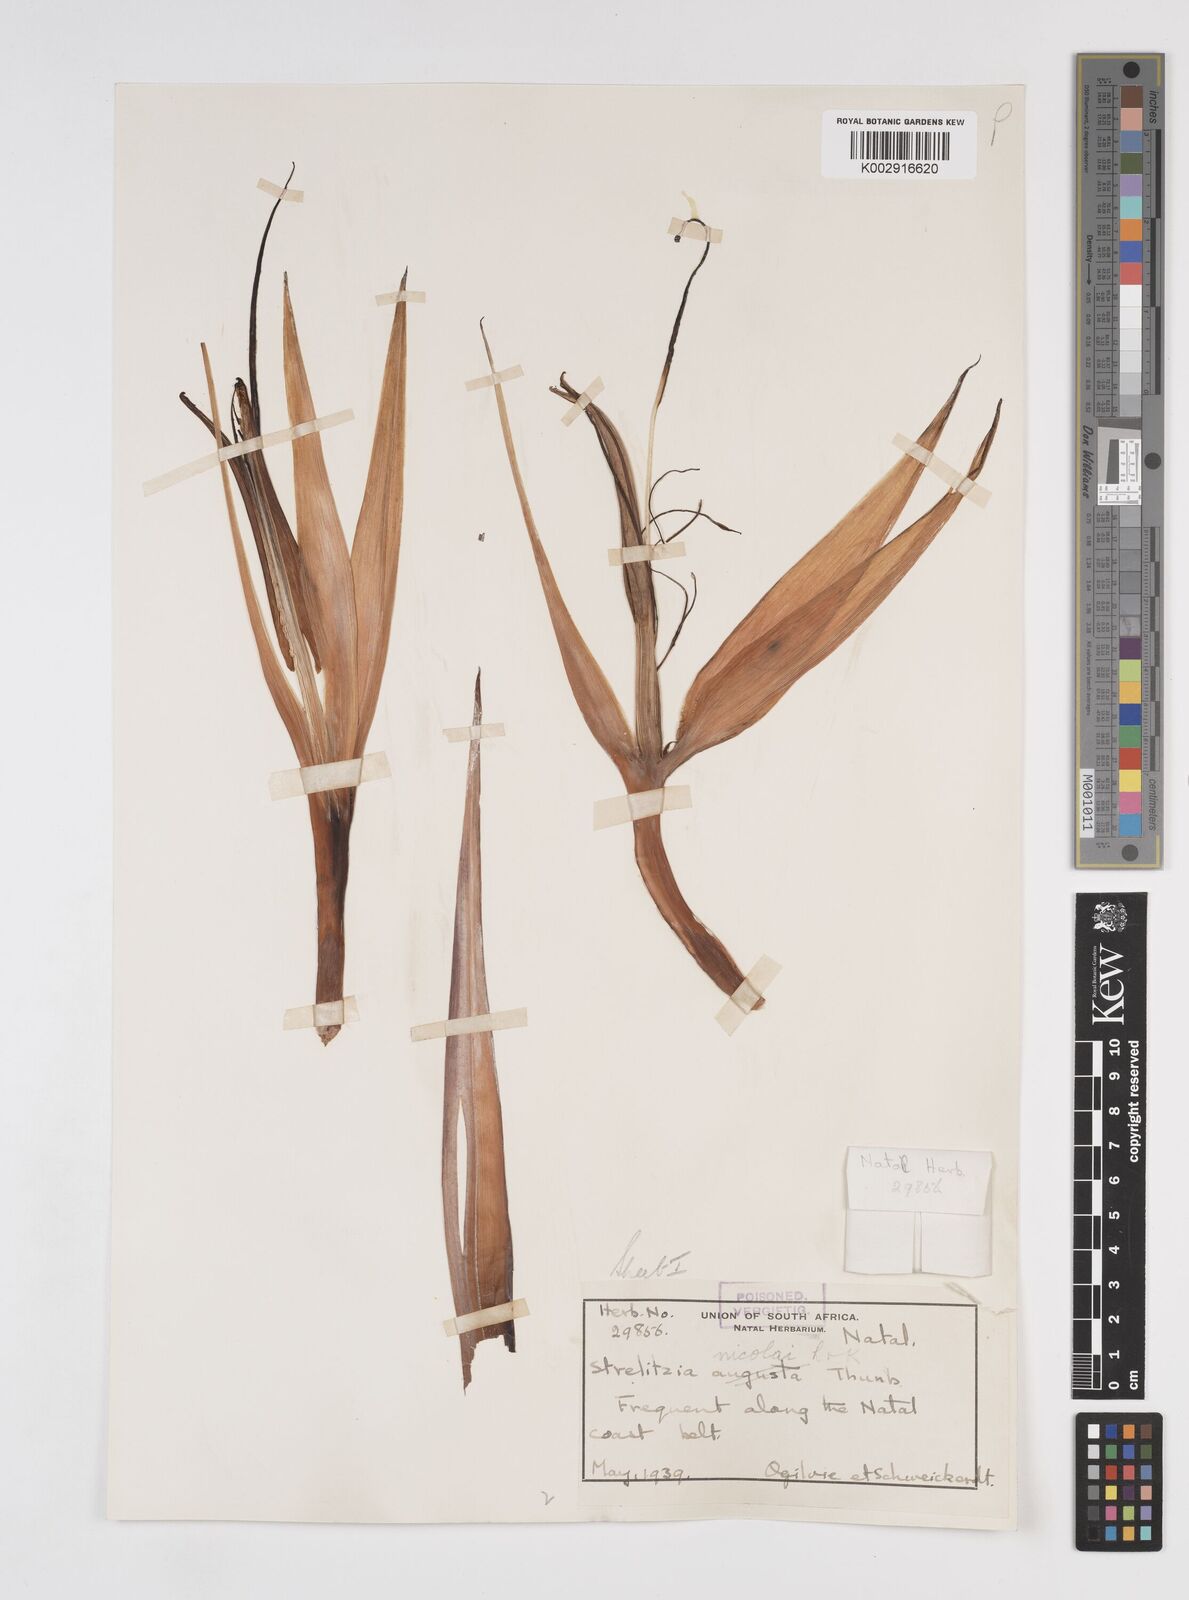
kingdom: Plantae
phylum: Tracheophyta
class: Liliopsida
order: Zingiberales
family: Strelitziaceae
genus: Strelitzia
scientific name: Strelitzia nicolai
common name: Bird-of-paradise tree
